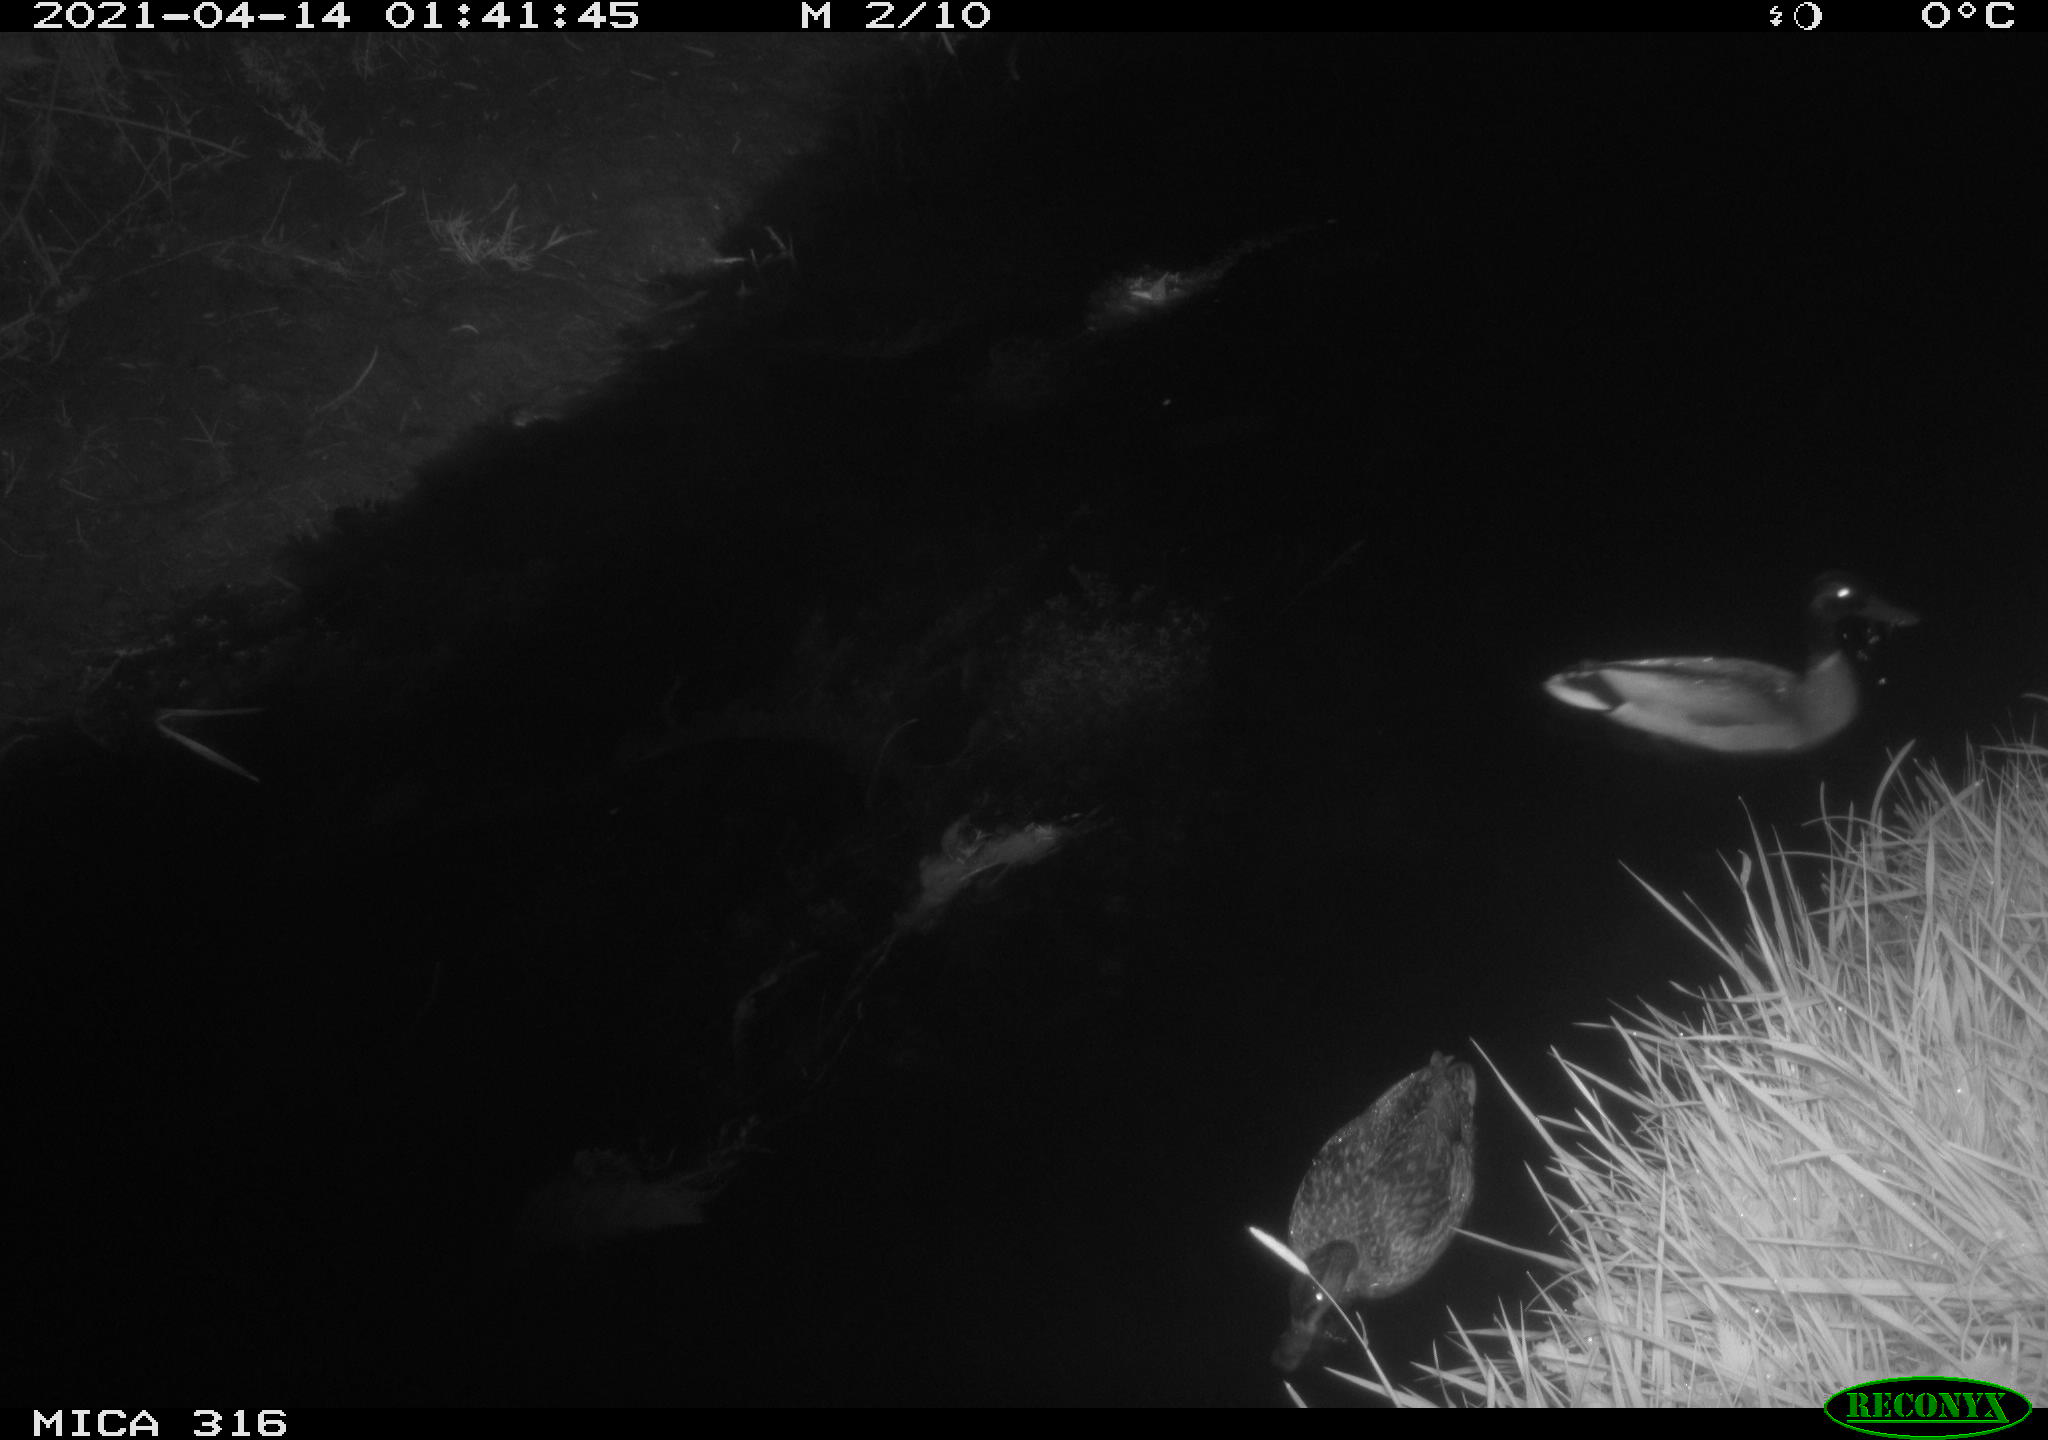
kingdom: Animalia
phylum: Chordata
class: Aves
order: Anseriformes
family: Anatidae
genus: Anas
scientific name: Anas platyrhynchos
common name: Mallard
